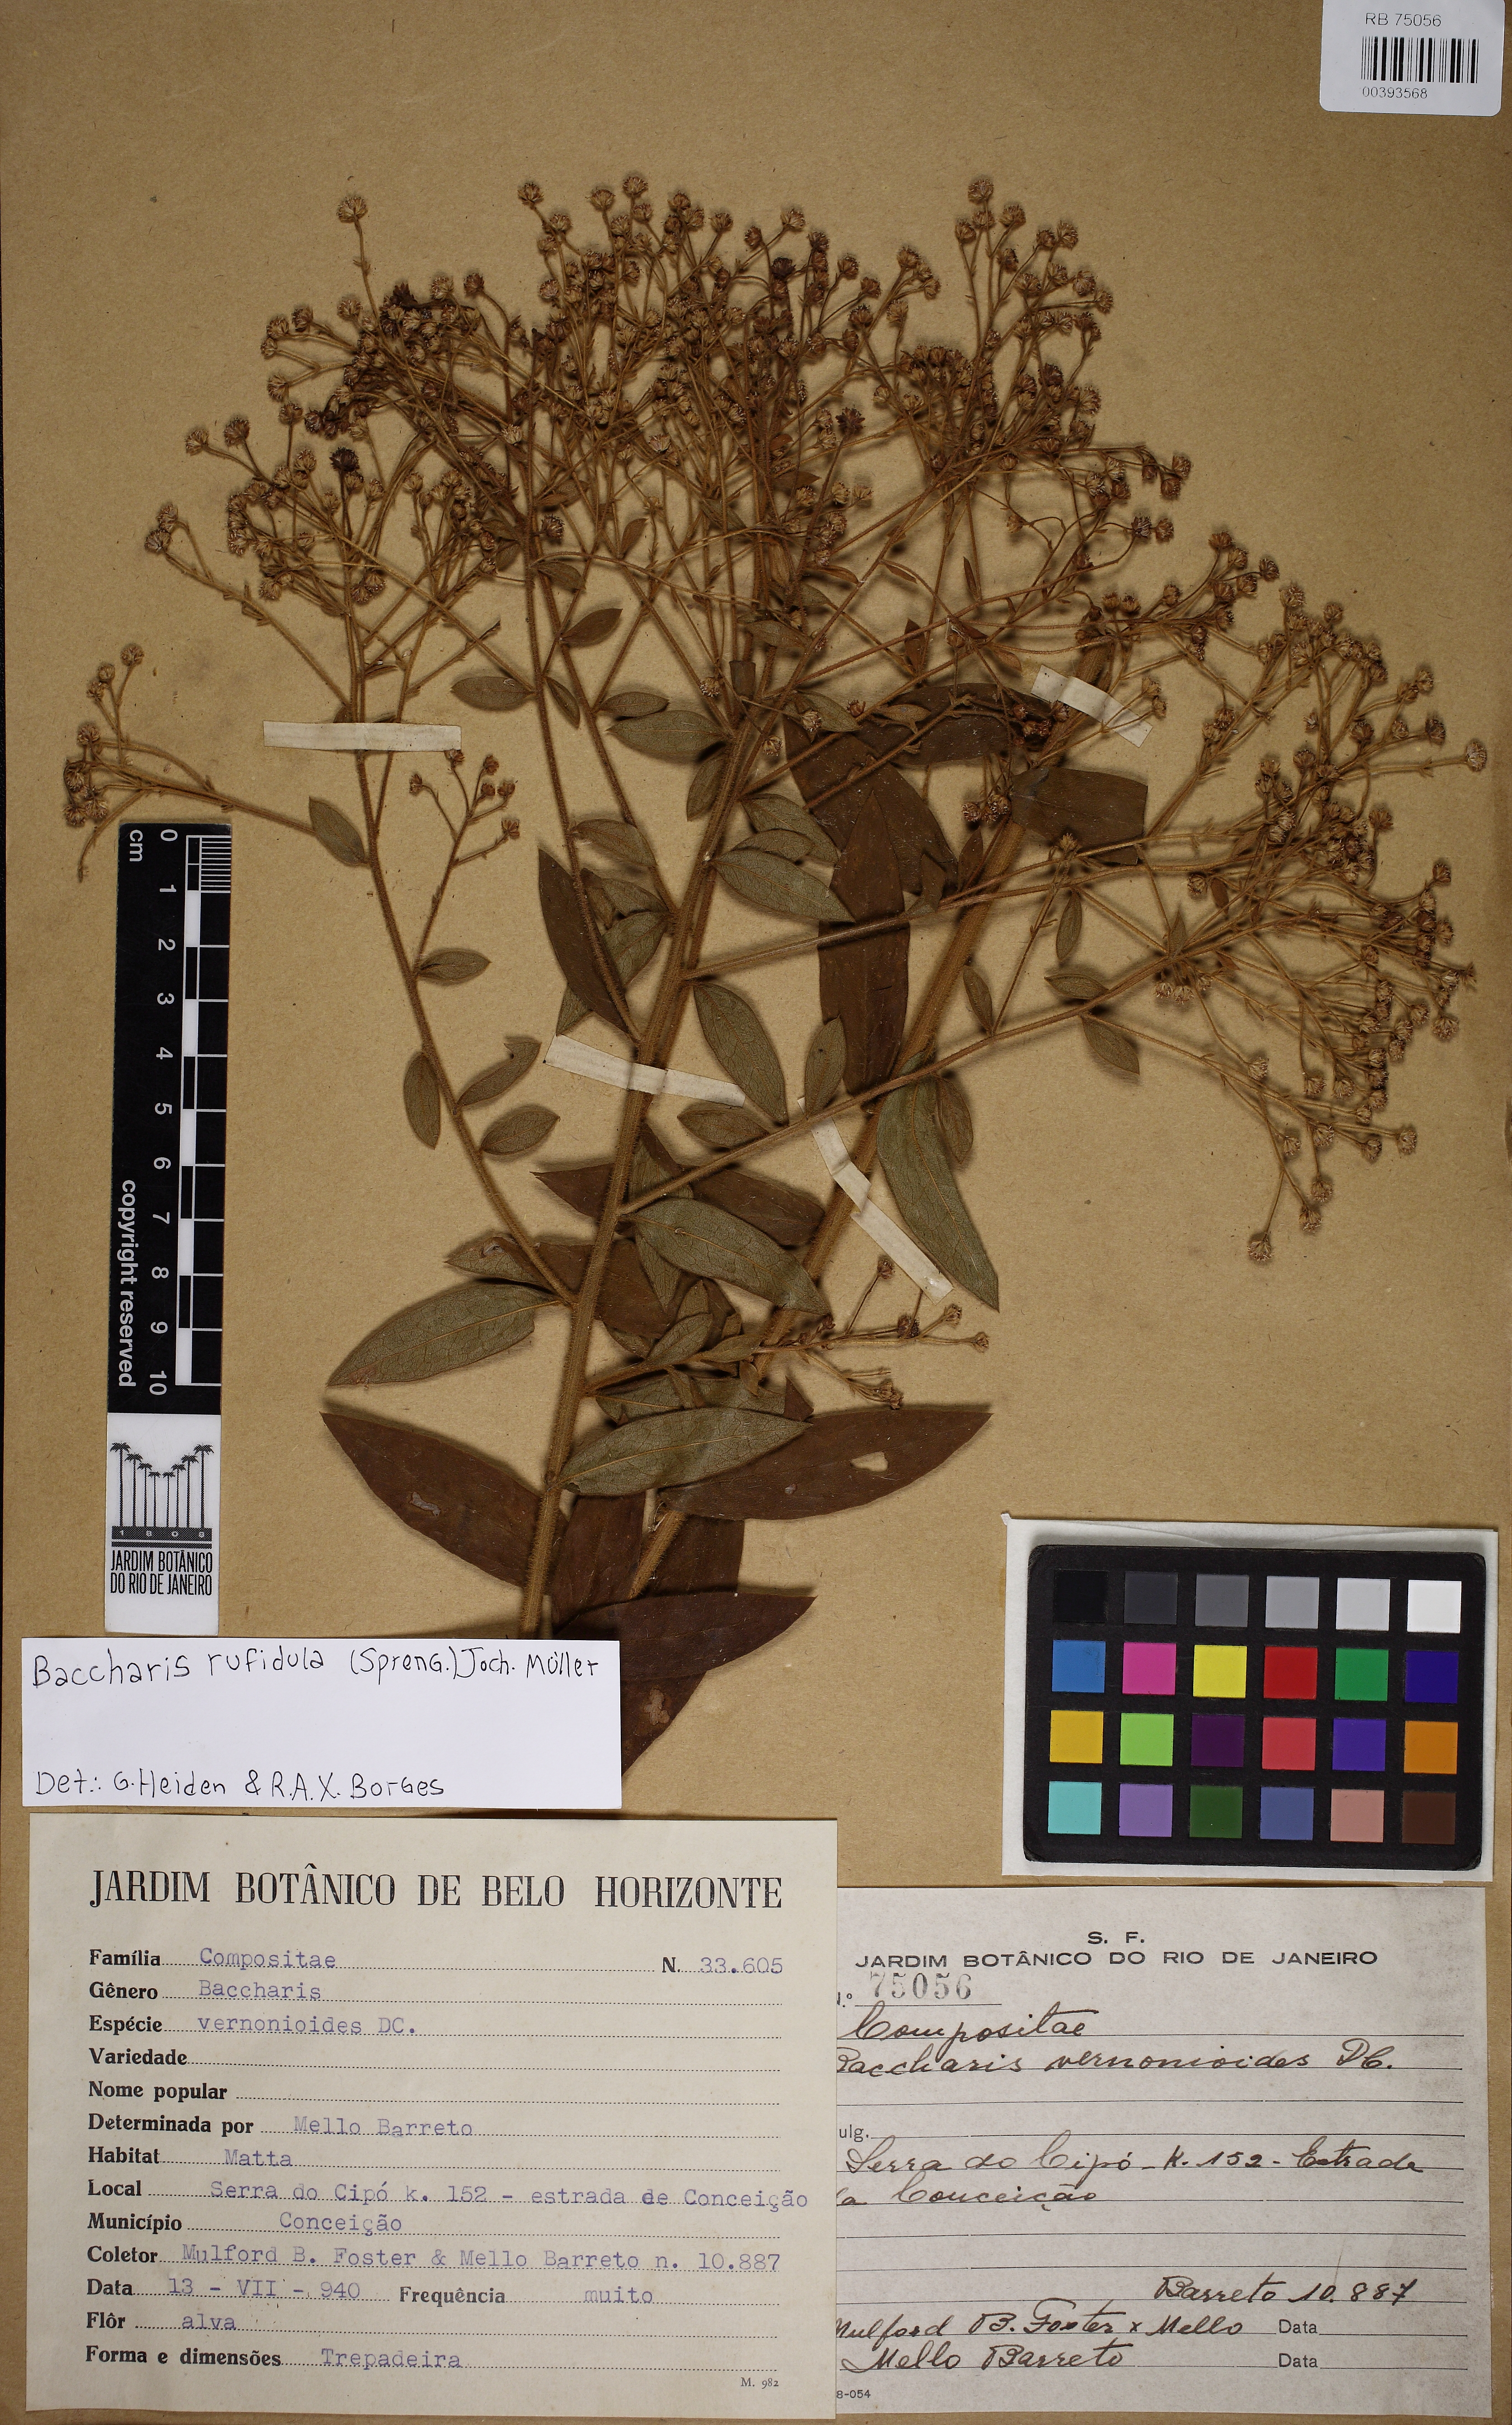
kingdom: Plantae
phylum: Tracheophyta
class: Magnoliopsida
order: Asterales
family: Asteraceae
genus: Baccharis
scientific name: Baccharis rufidula
